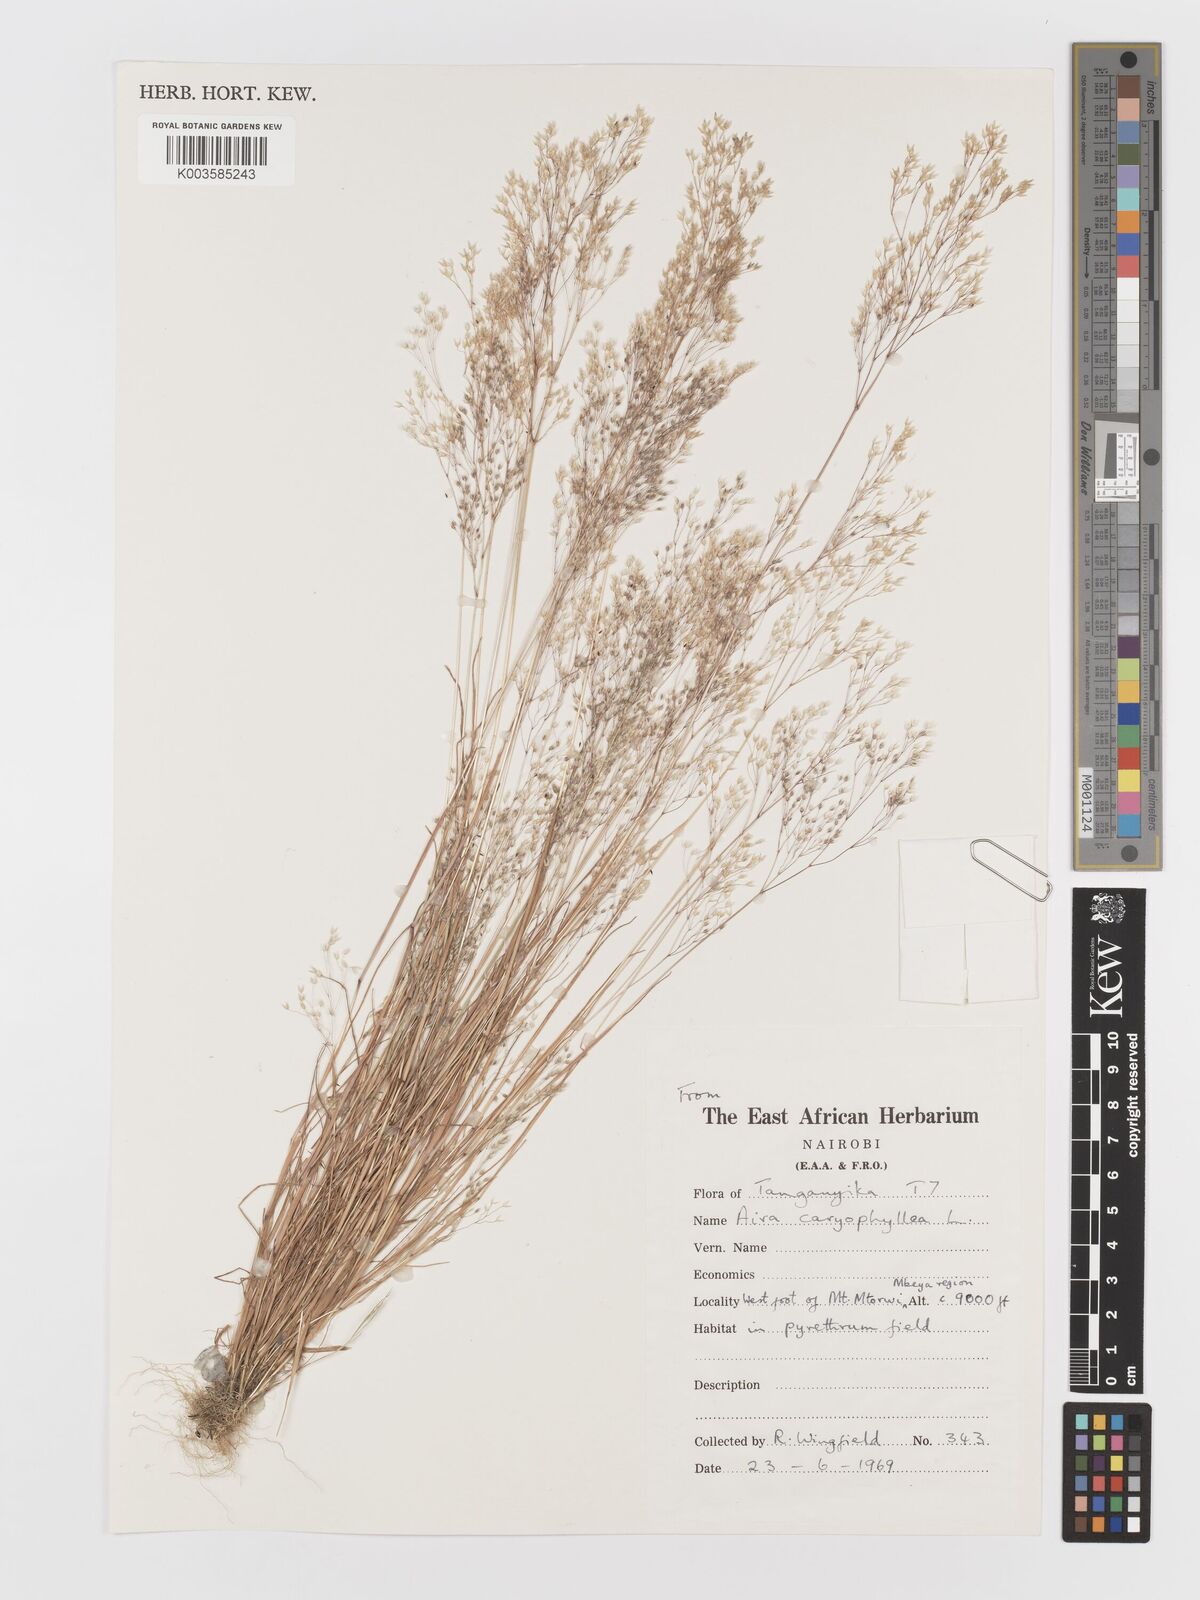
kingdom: Plantae
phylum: Tracheophyta
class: Liliopsida
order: Poales
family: Poaceae
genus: Aira
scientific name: Aira caryophyllea
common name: Silver hairgrass
